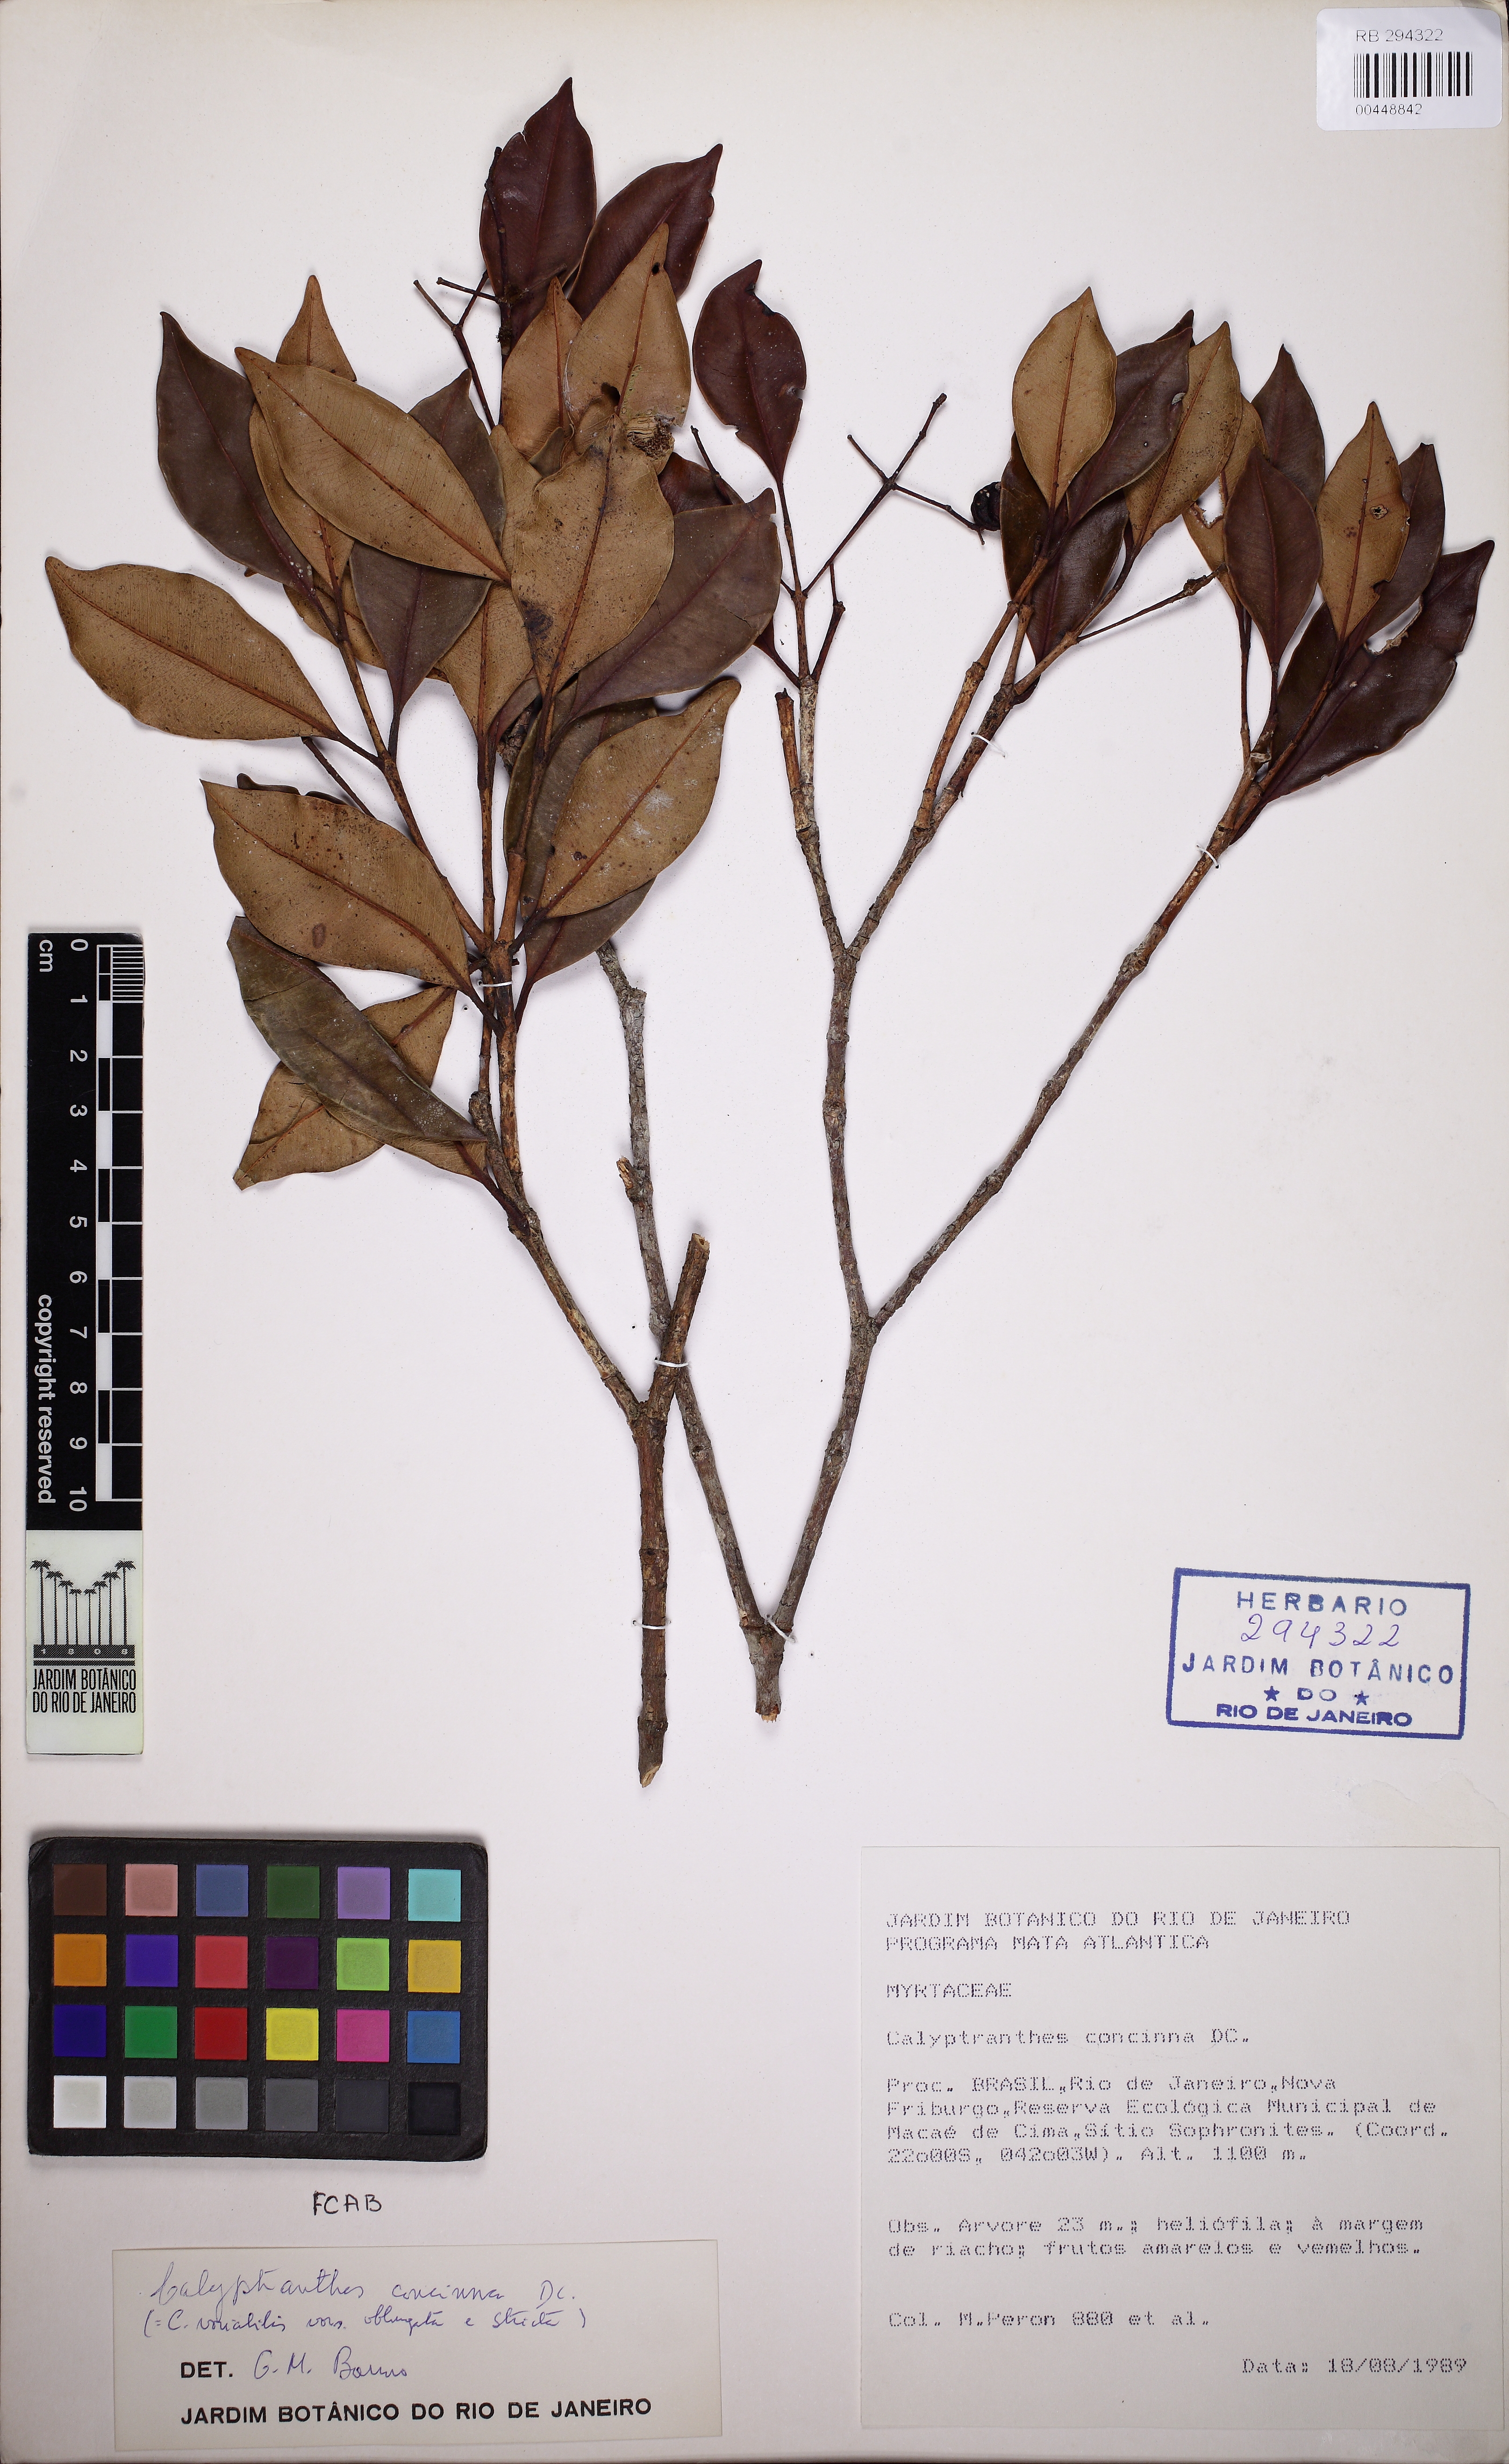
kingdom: Plantae
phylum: Tracheophyta
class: Magnoliopsida
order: Myrtales
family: Myrtaceae
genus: Myrcia
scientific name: Myrcia dichrophylla
